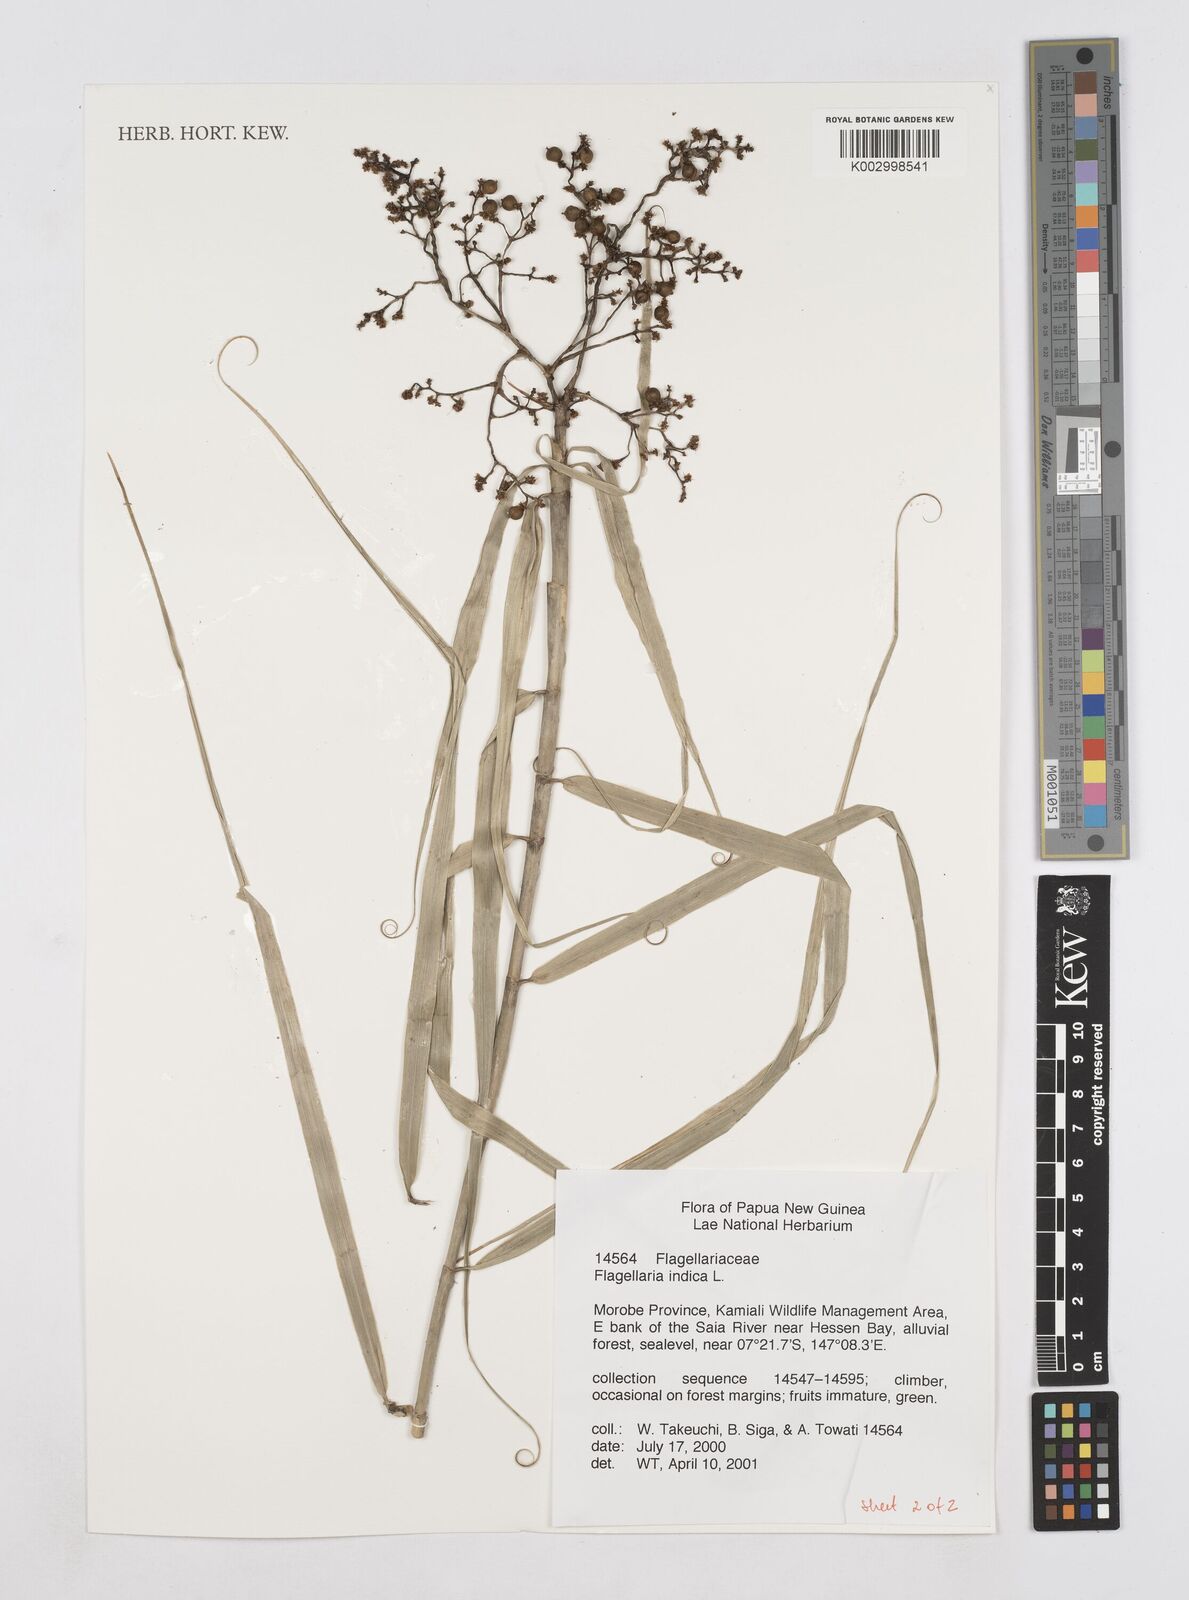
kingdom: Plantae
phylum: Tracheophyta
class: Liliopsida
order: Poales
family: Flagellariaceae
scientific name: Flagellariaceae
